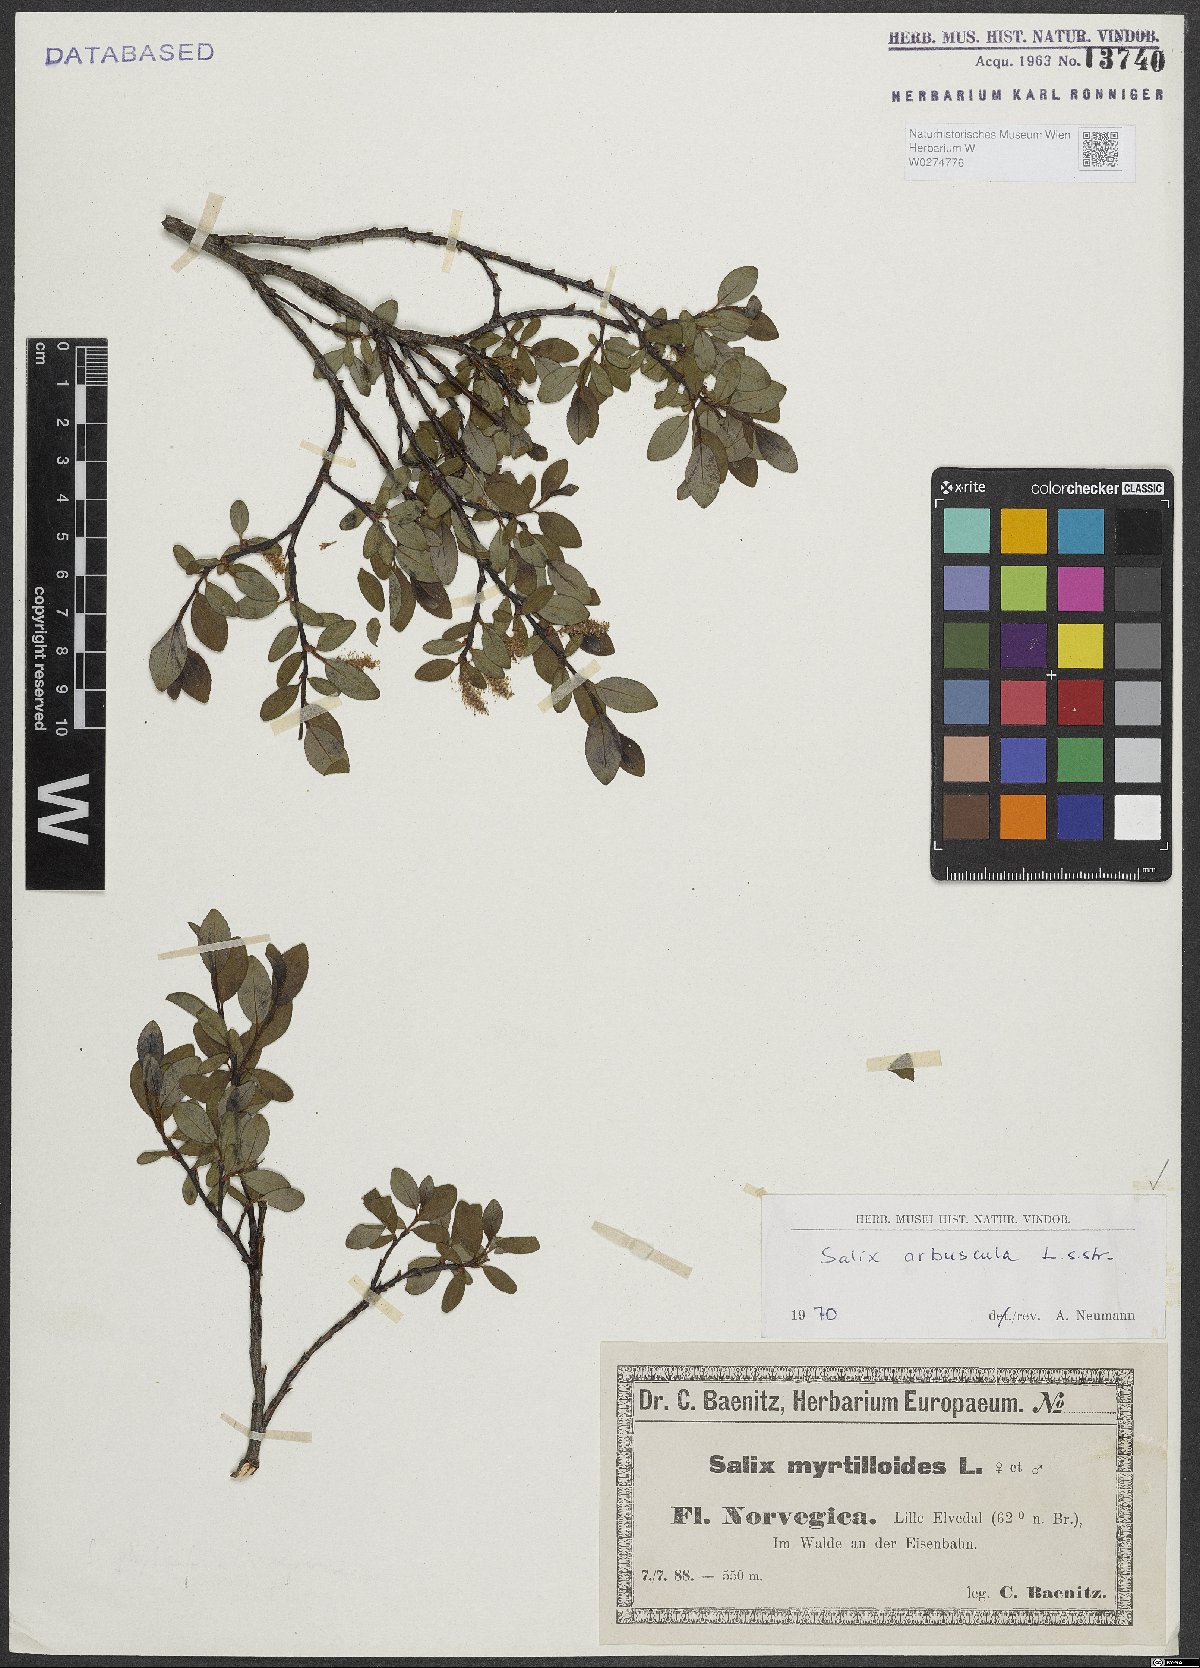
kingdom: Plantae
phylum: Tracheophyta
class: Magnoliopsida
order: Malpighiales
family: Salicaceae
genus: Salix
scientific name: Salix arbuscula
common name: Mountain willow
